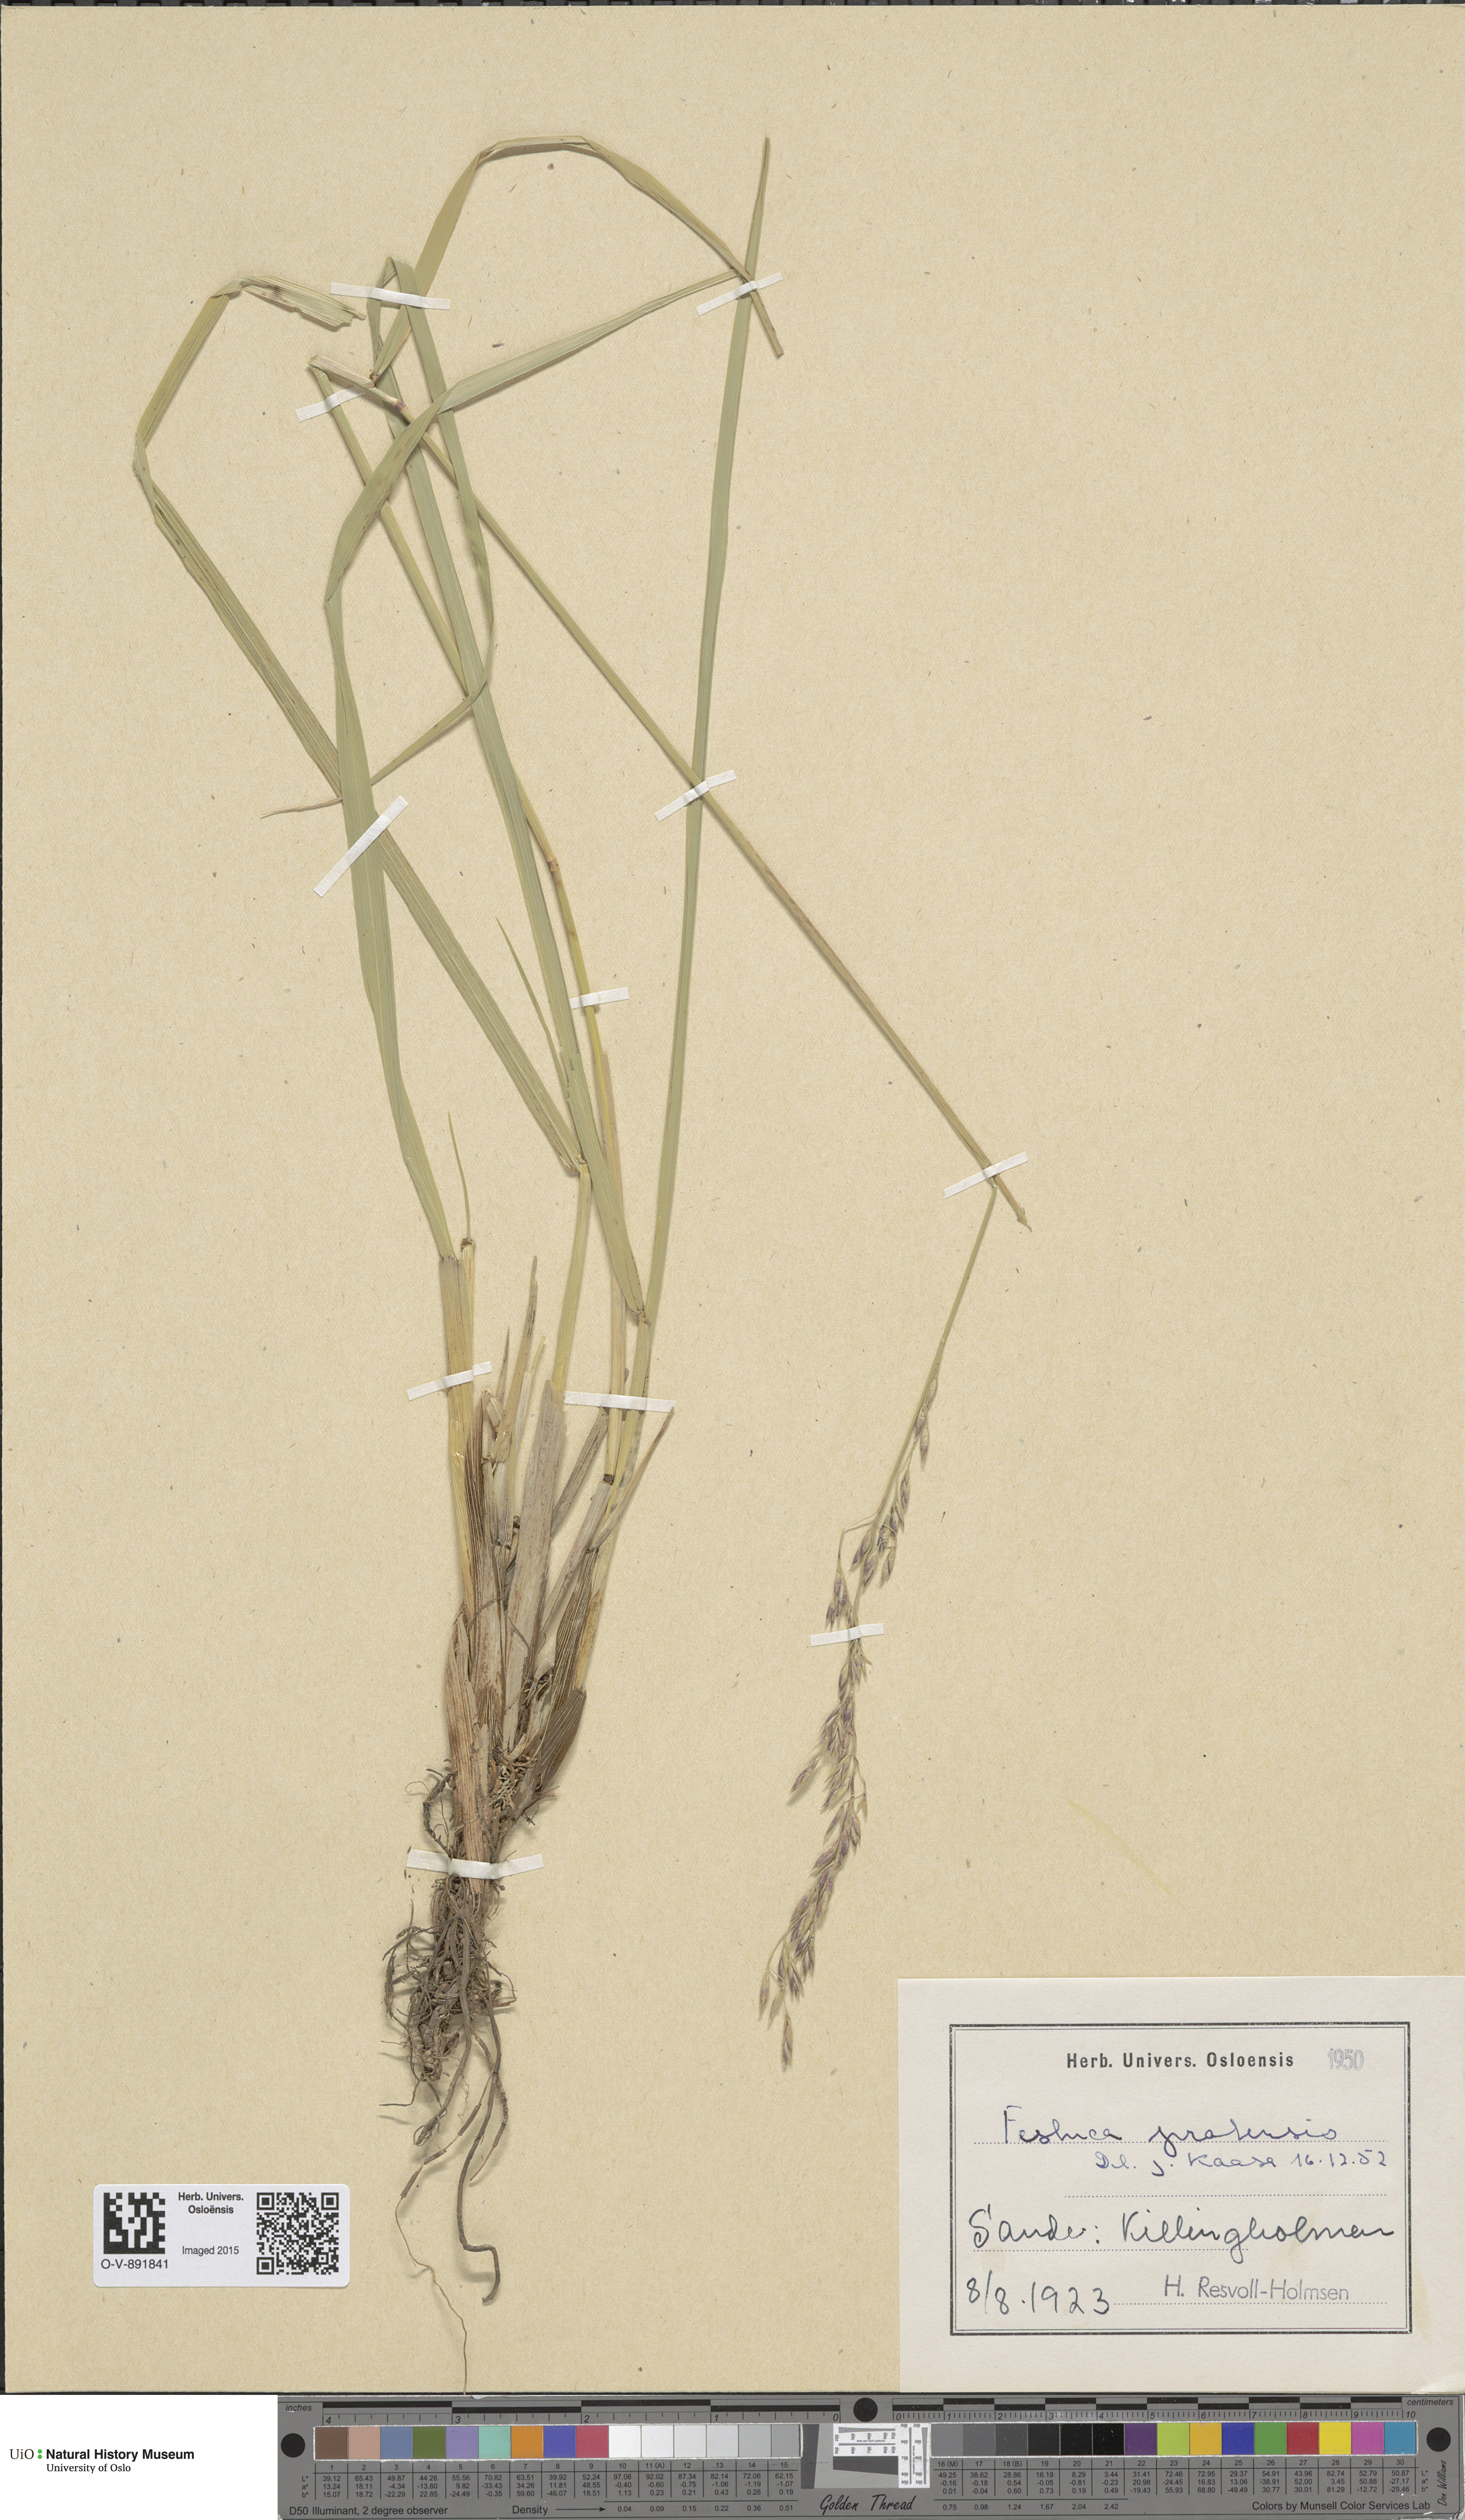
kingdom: Plantae
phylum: Tracheophyta
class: Liliopsida
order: Poales
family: Poaceae
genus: Lolium
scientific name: Lolium pratense
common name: Dover grass
